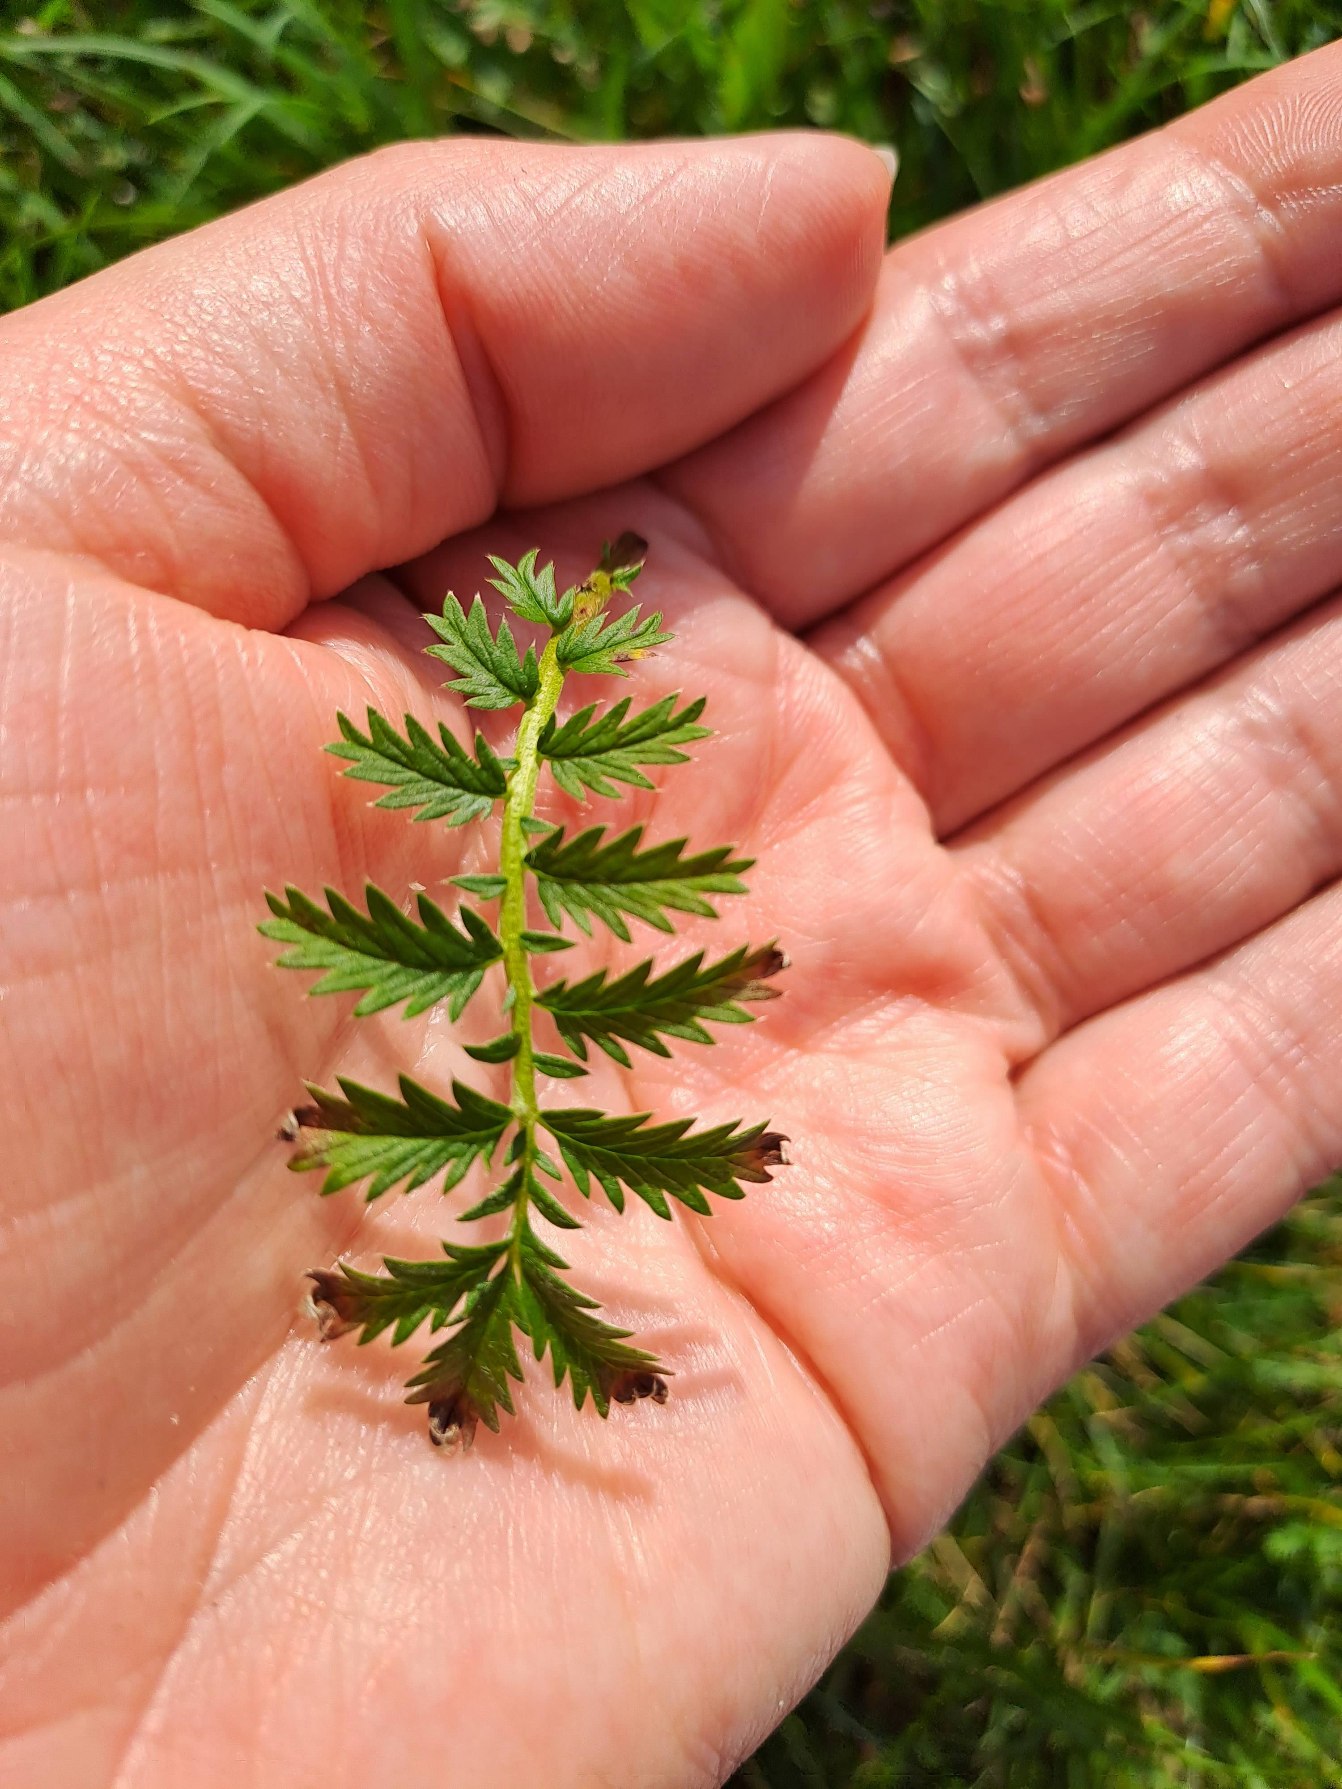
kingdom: Plantae
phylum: Tracheophyta
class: Magnoliopsida
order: Rosales
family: Rosaceae
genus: Argentina
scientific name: Argentina anserina
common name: Gåsepotentil
